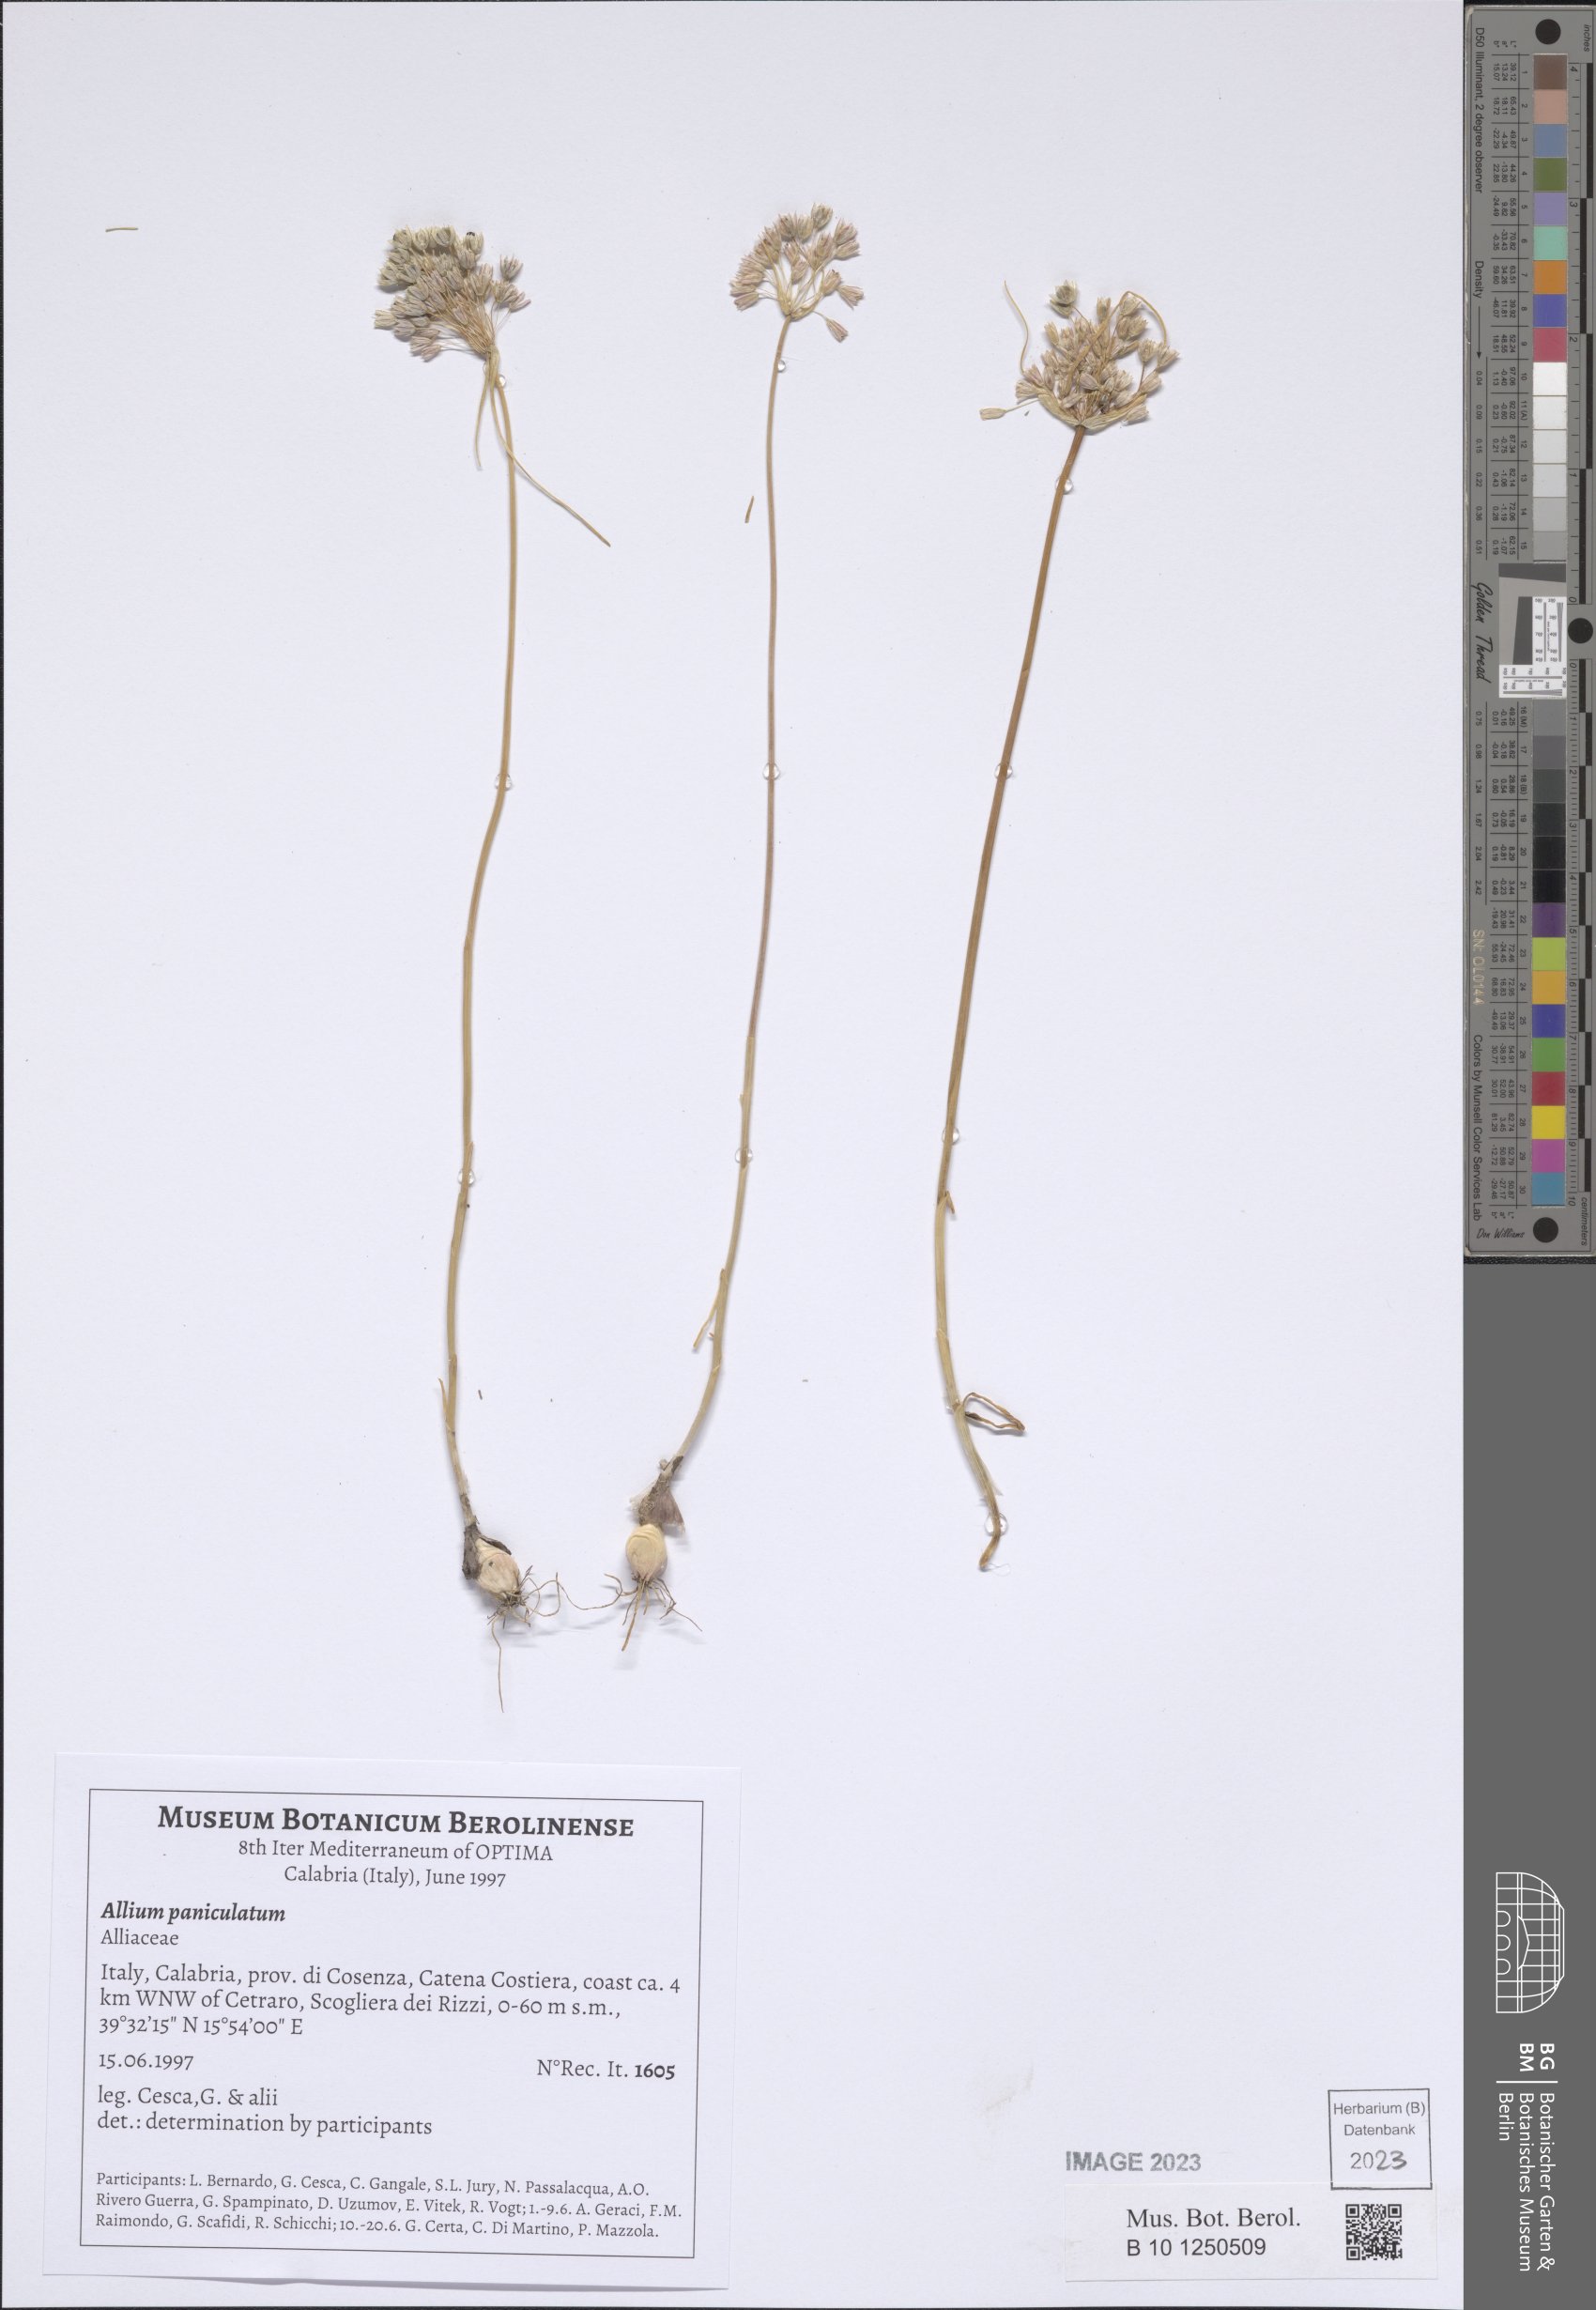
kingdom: Plantae
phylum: Tracheophyta
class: Liliopsida
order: Asparagales
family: Amaryllidaceae
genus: Allium
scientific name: Allium paniculatum
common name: Pale garlic
